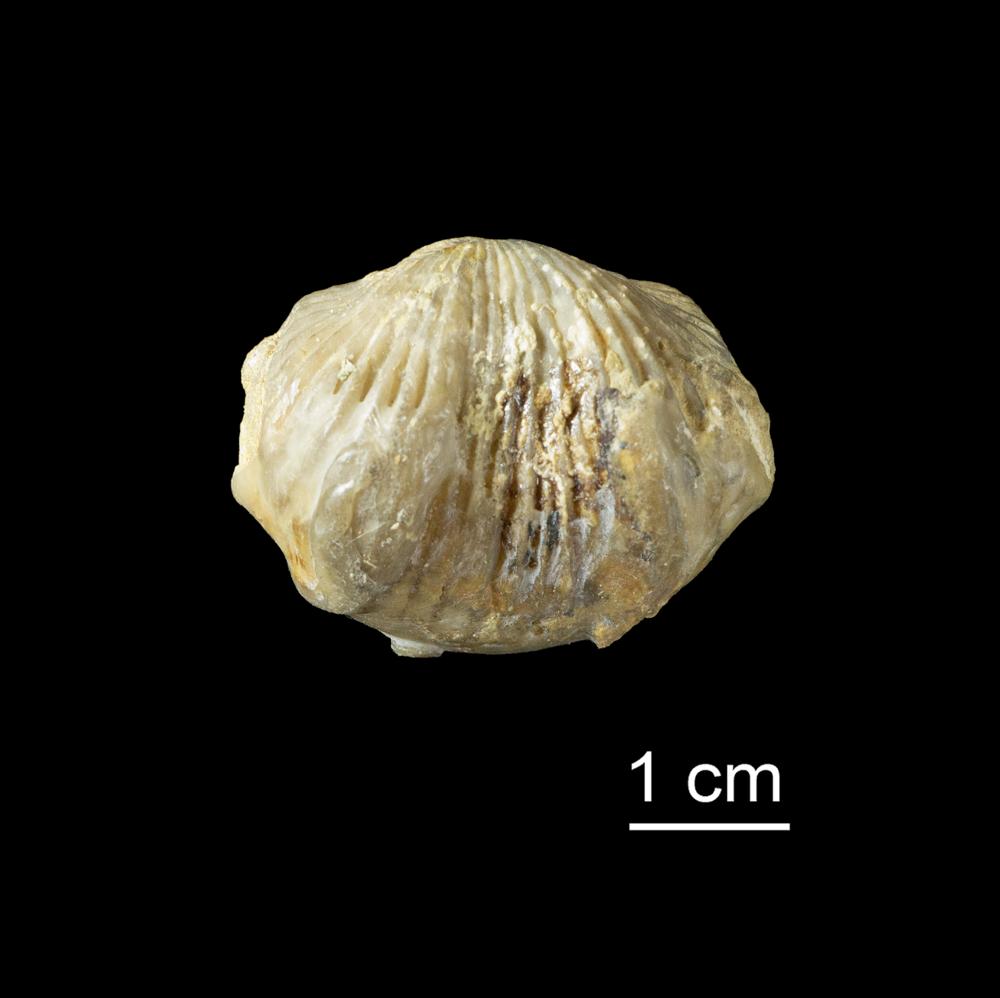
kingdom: Animalia
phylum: Brachiopoda
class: Rhynchonellata
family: Plectorthidae
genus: Platystrophia
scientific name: Platystrophia Terebratulites biforatus
